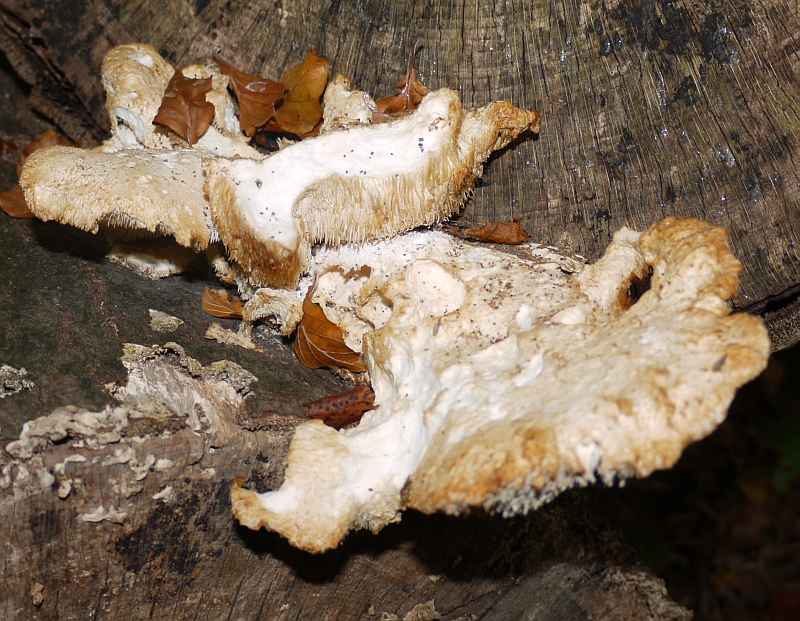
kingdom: Fungi
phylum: Basidiomycota
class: Agaricomycetes
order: Russulales
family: Hericiaceae
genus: Hericium
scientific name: Hericium cirrhatum
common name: børstepigsvamp
